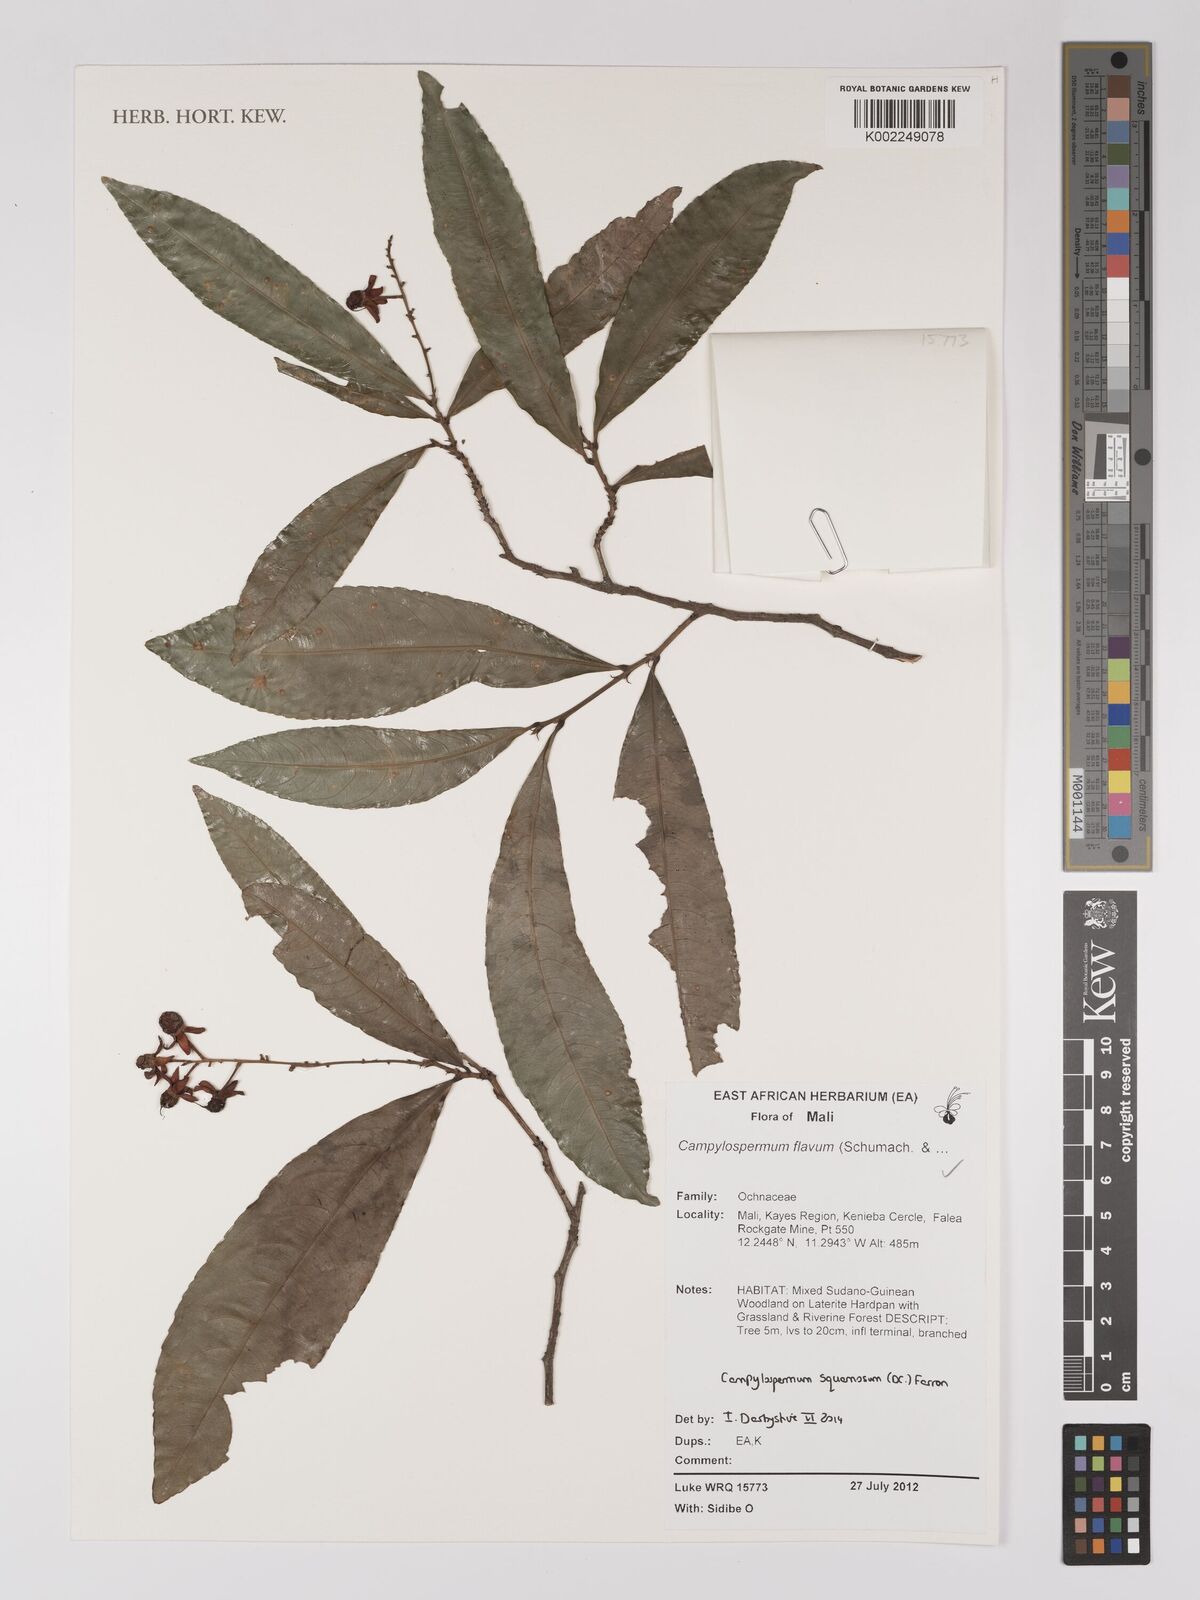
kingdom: Plantae
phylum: Tracheophyta
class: Magnoliopsida
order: Malpighiales
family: Ochnaceae
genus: Campylospermum
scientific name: Campylospermum squamosum
